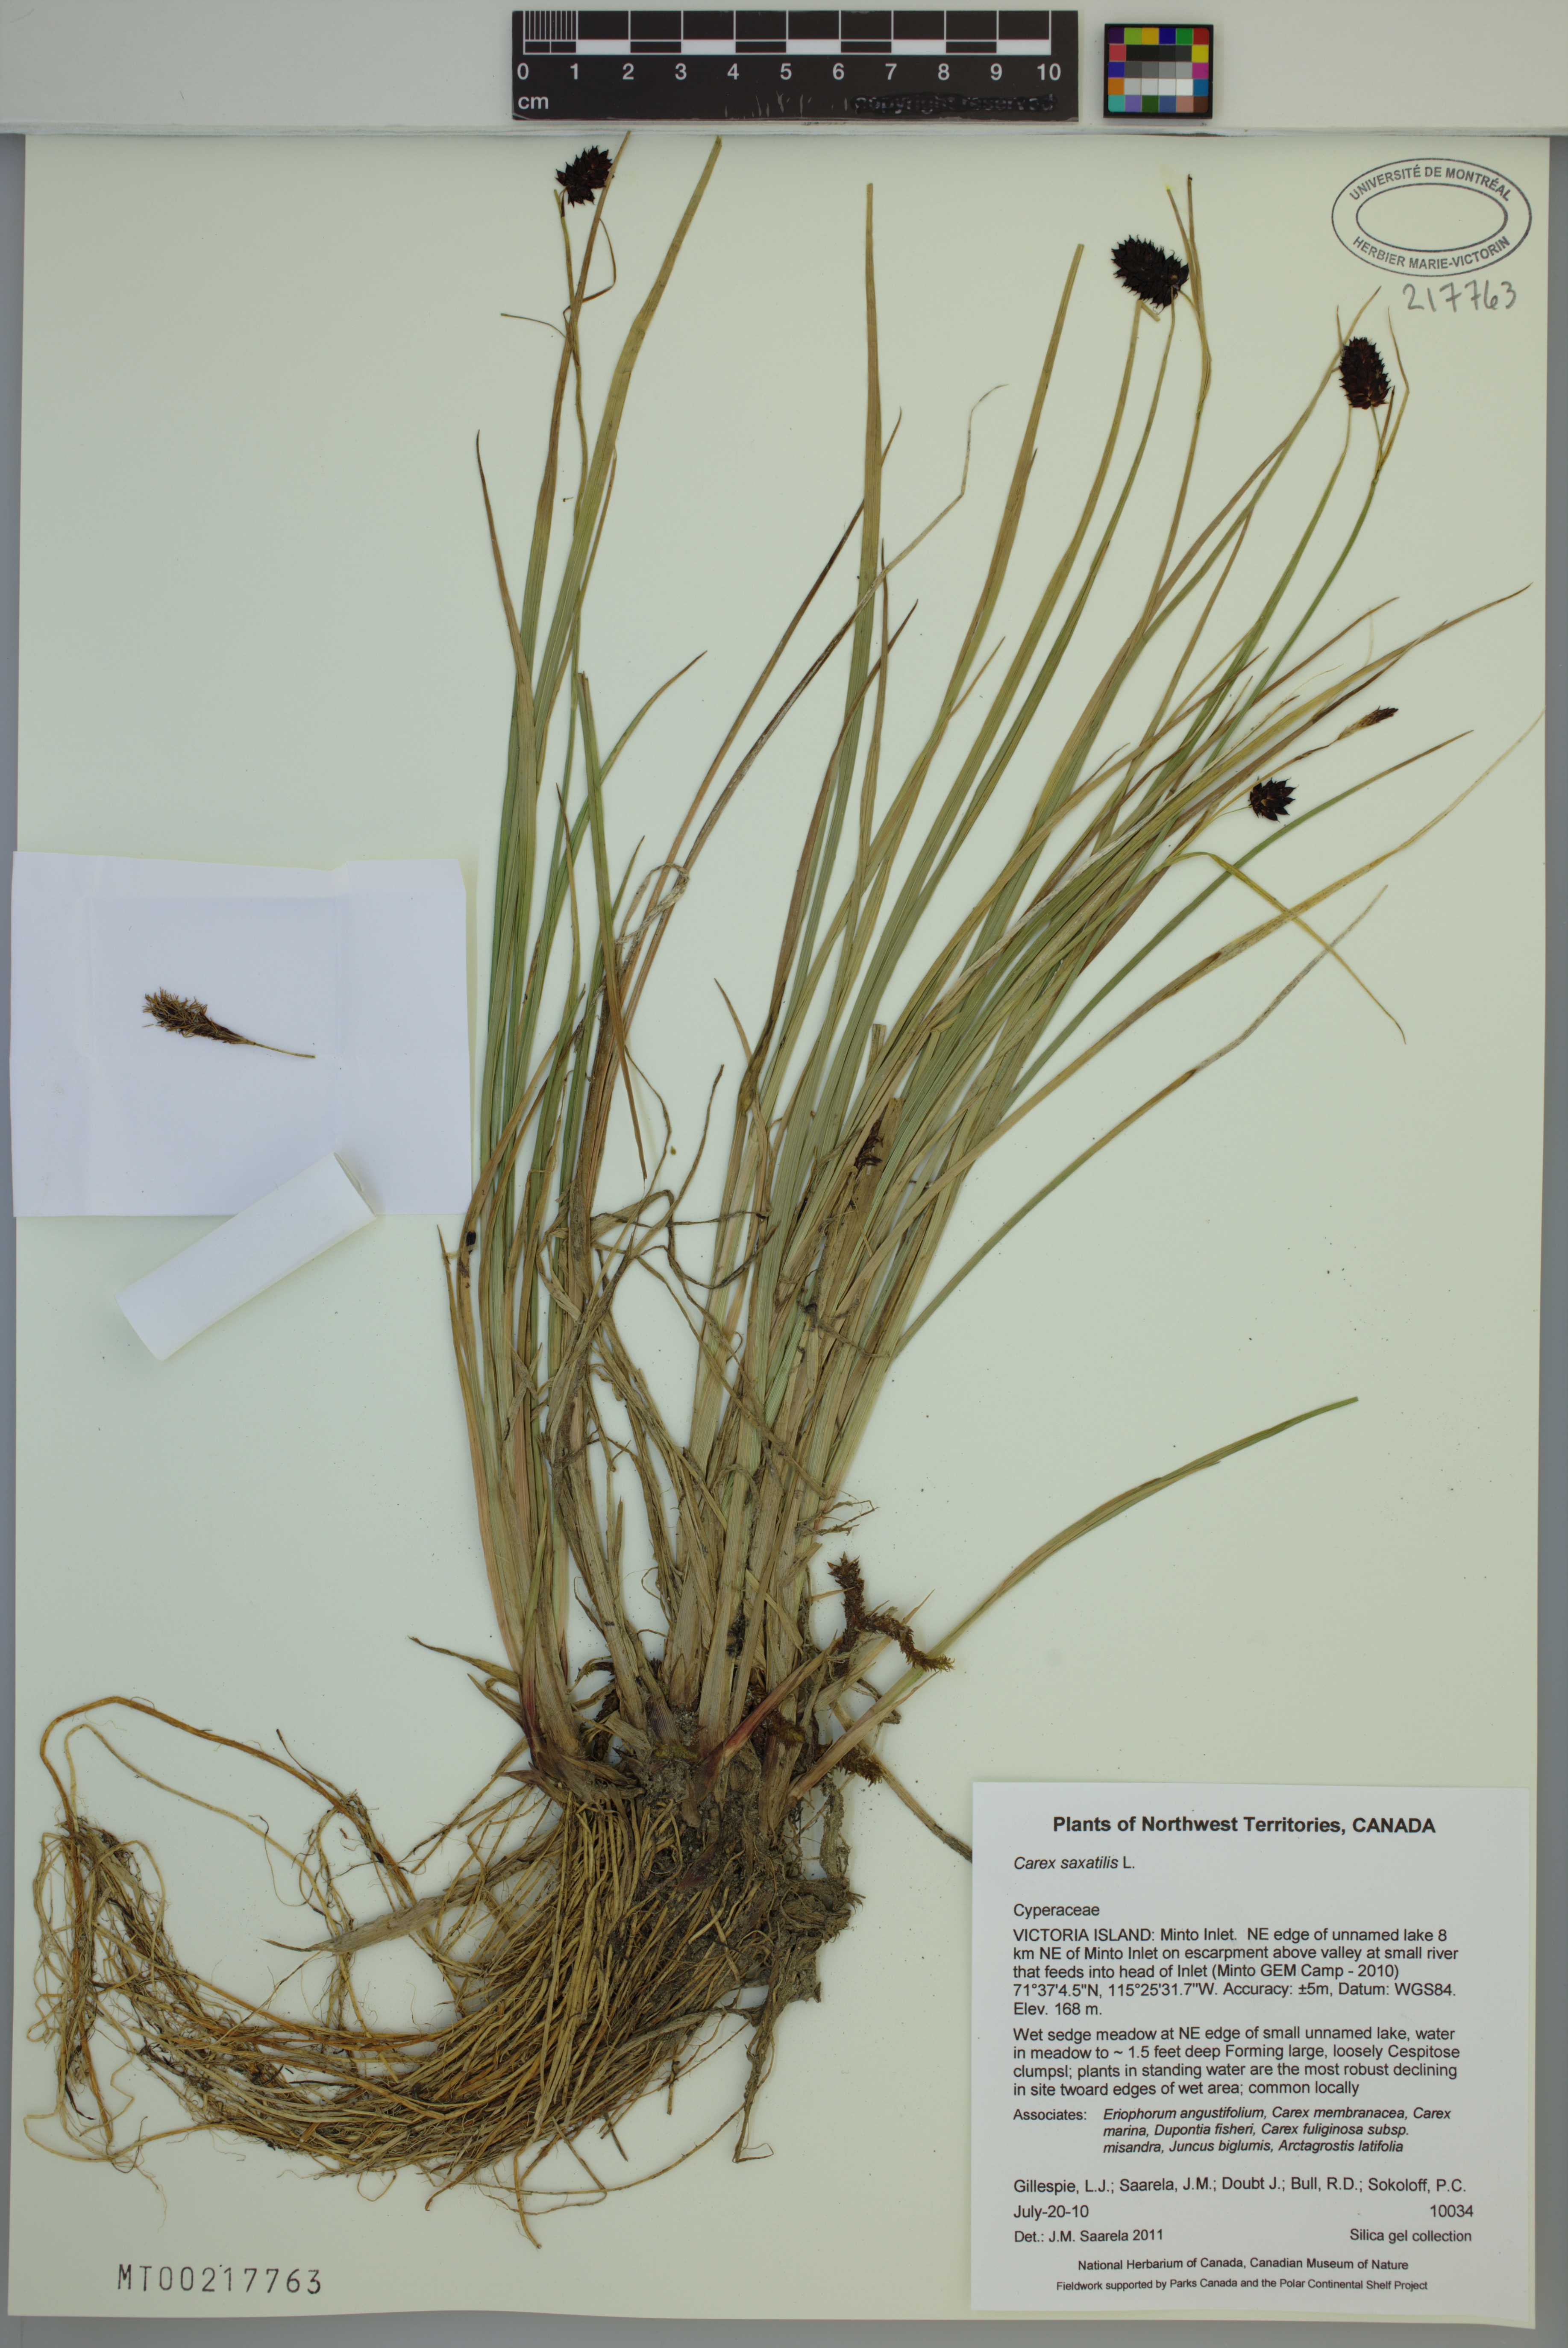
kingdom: Plantae
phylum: Tracheophyta
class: Liliopsida
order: Poales
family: Cyperaceae
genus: Carex
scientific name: Carex saxatilis
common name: Russet sedge
